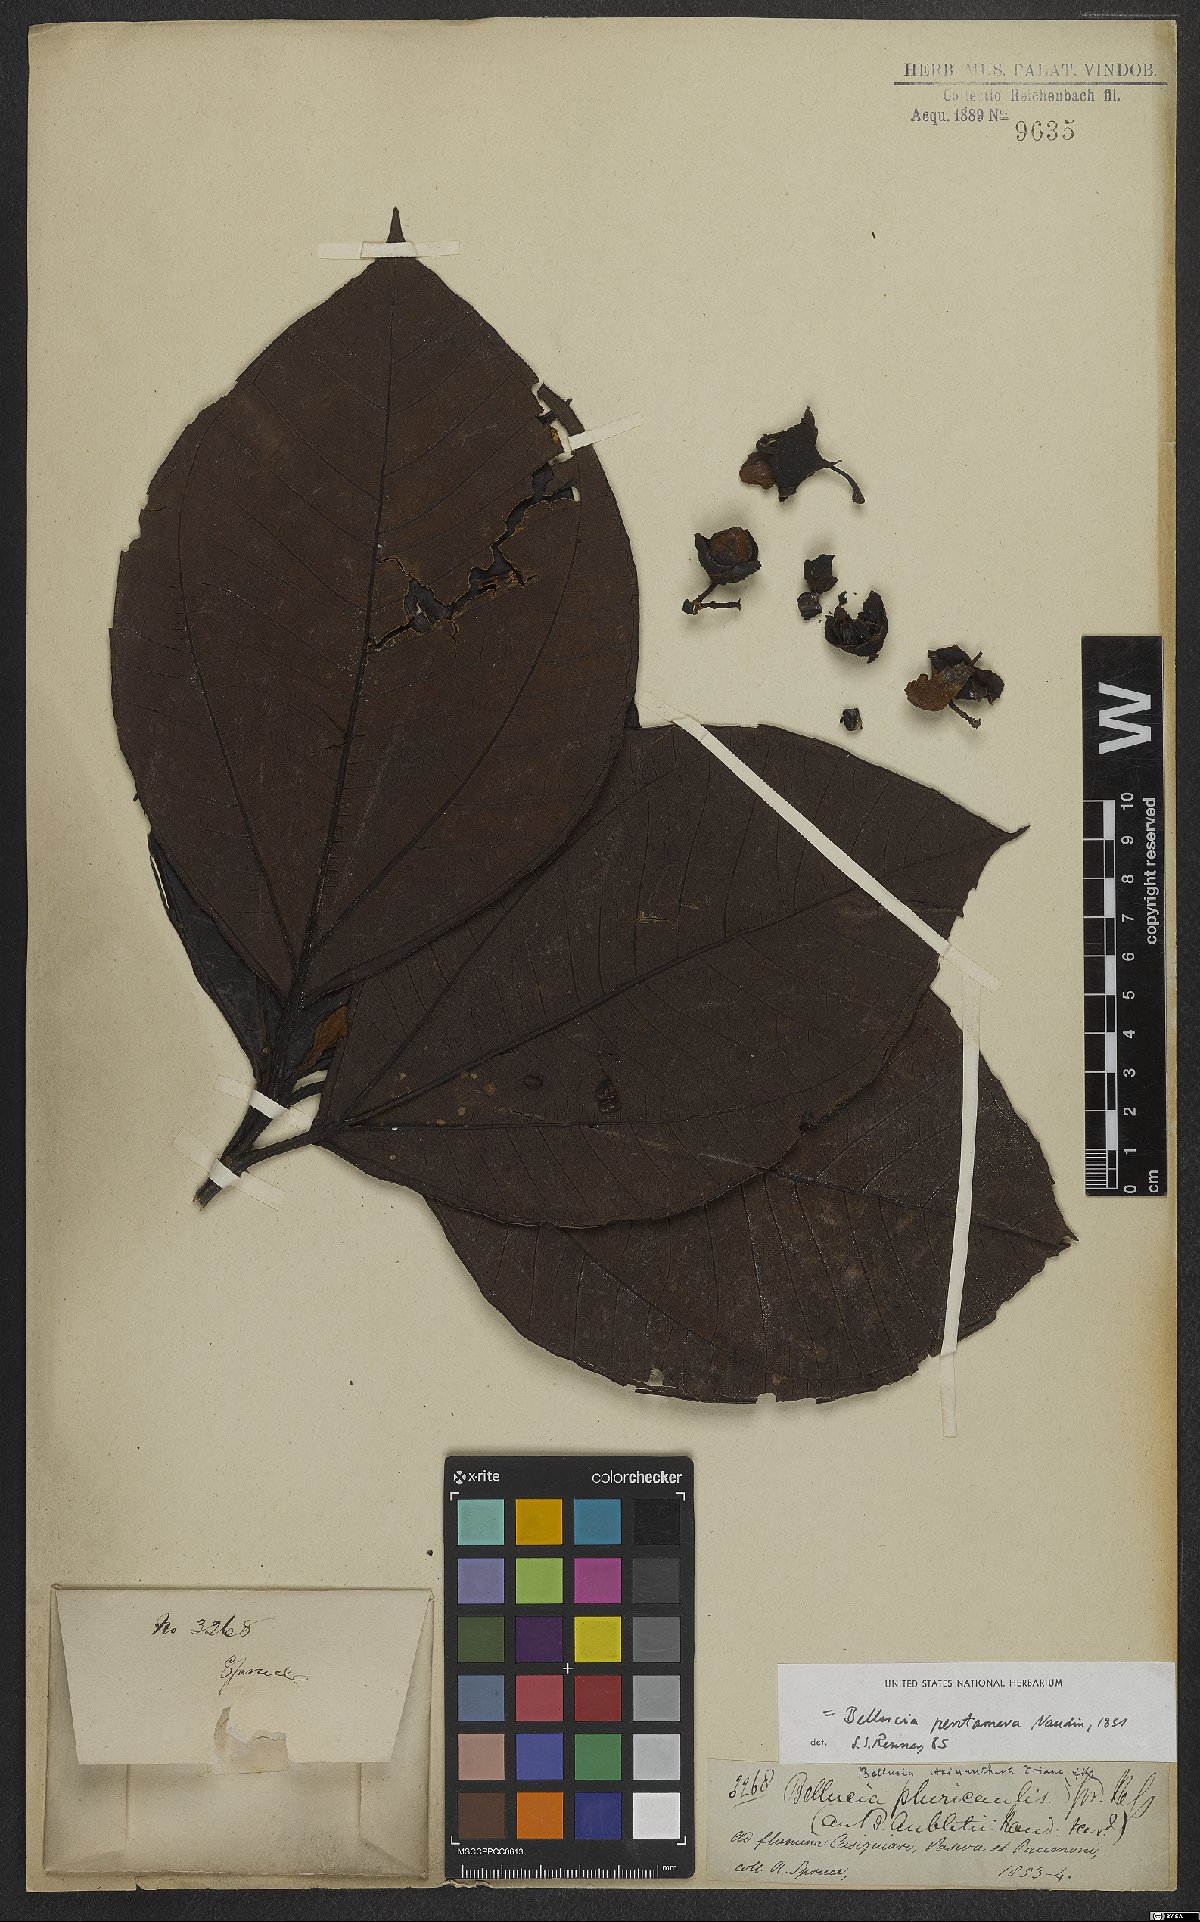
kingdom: Plantae
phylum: Tracheophyta
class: Magnoliopsida
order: Myrtales
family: Melastomataceae
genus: Bellucia
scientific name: Bellucia pentamera
